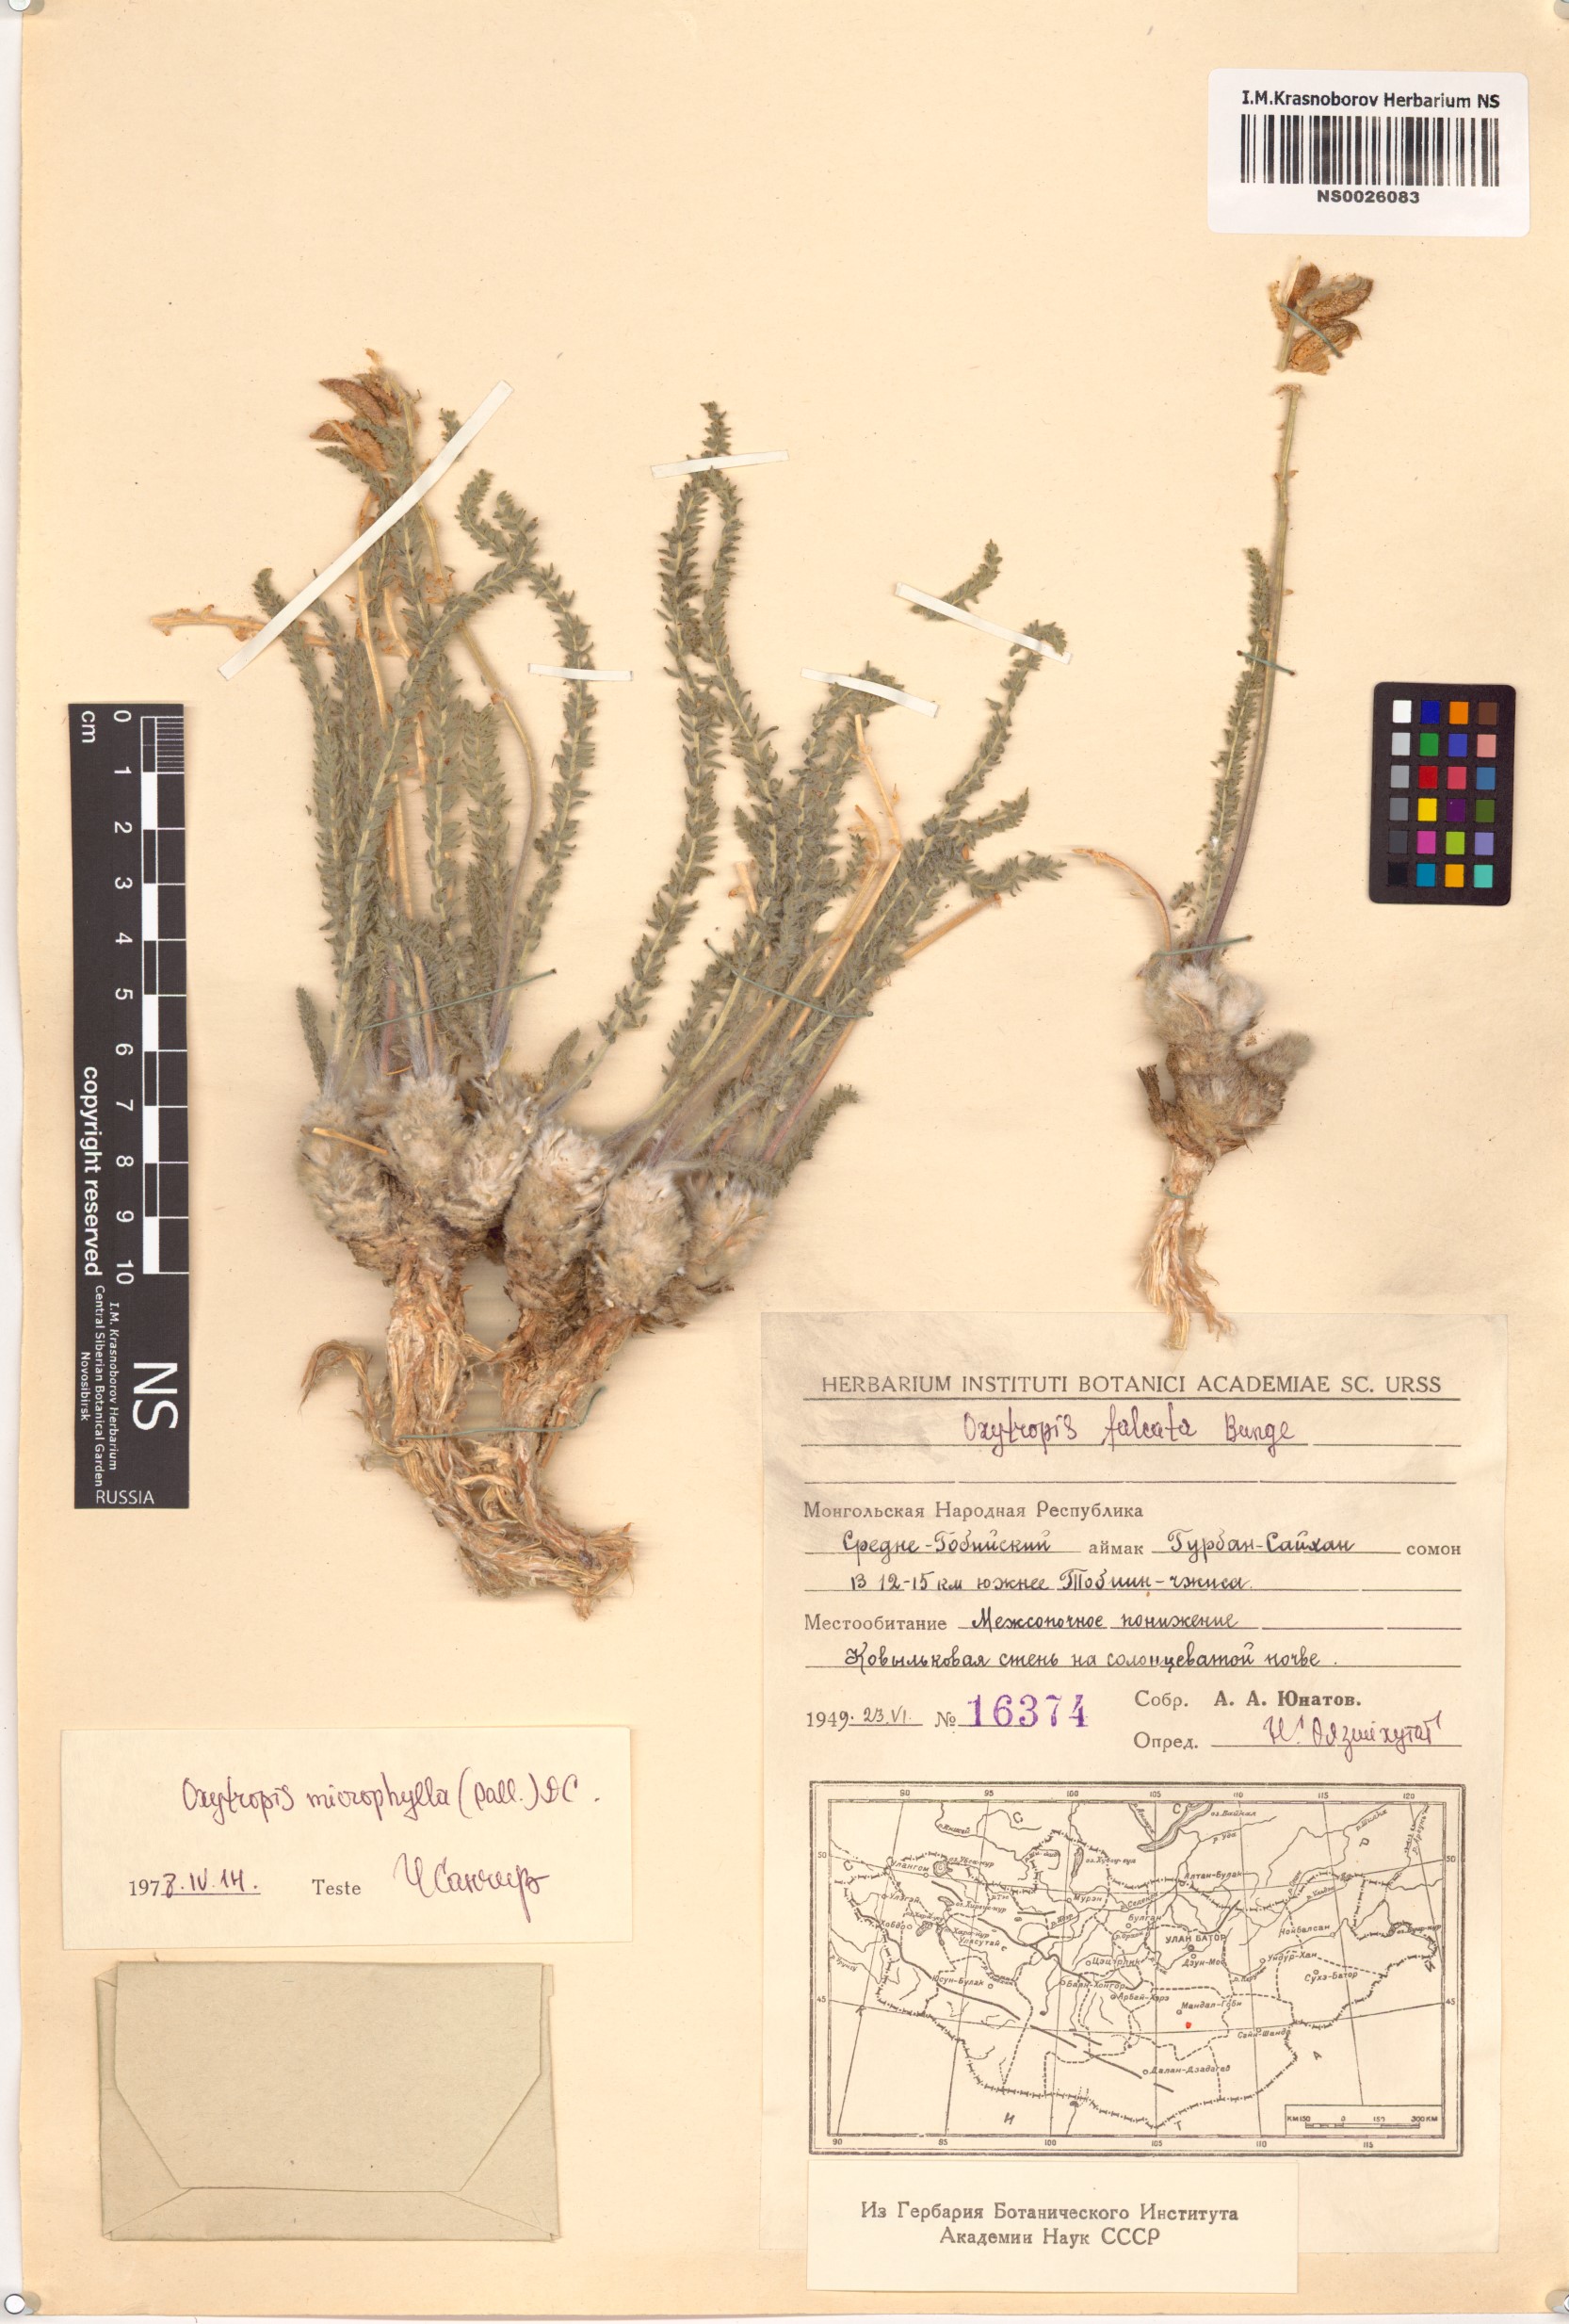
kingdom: Plantae
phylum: Tracheophyta
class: Magnoliopsida
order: Fabales
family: Fabaceae
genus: Oxytropis
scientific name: Oxytropis falcata
